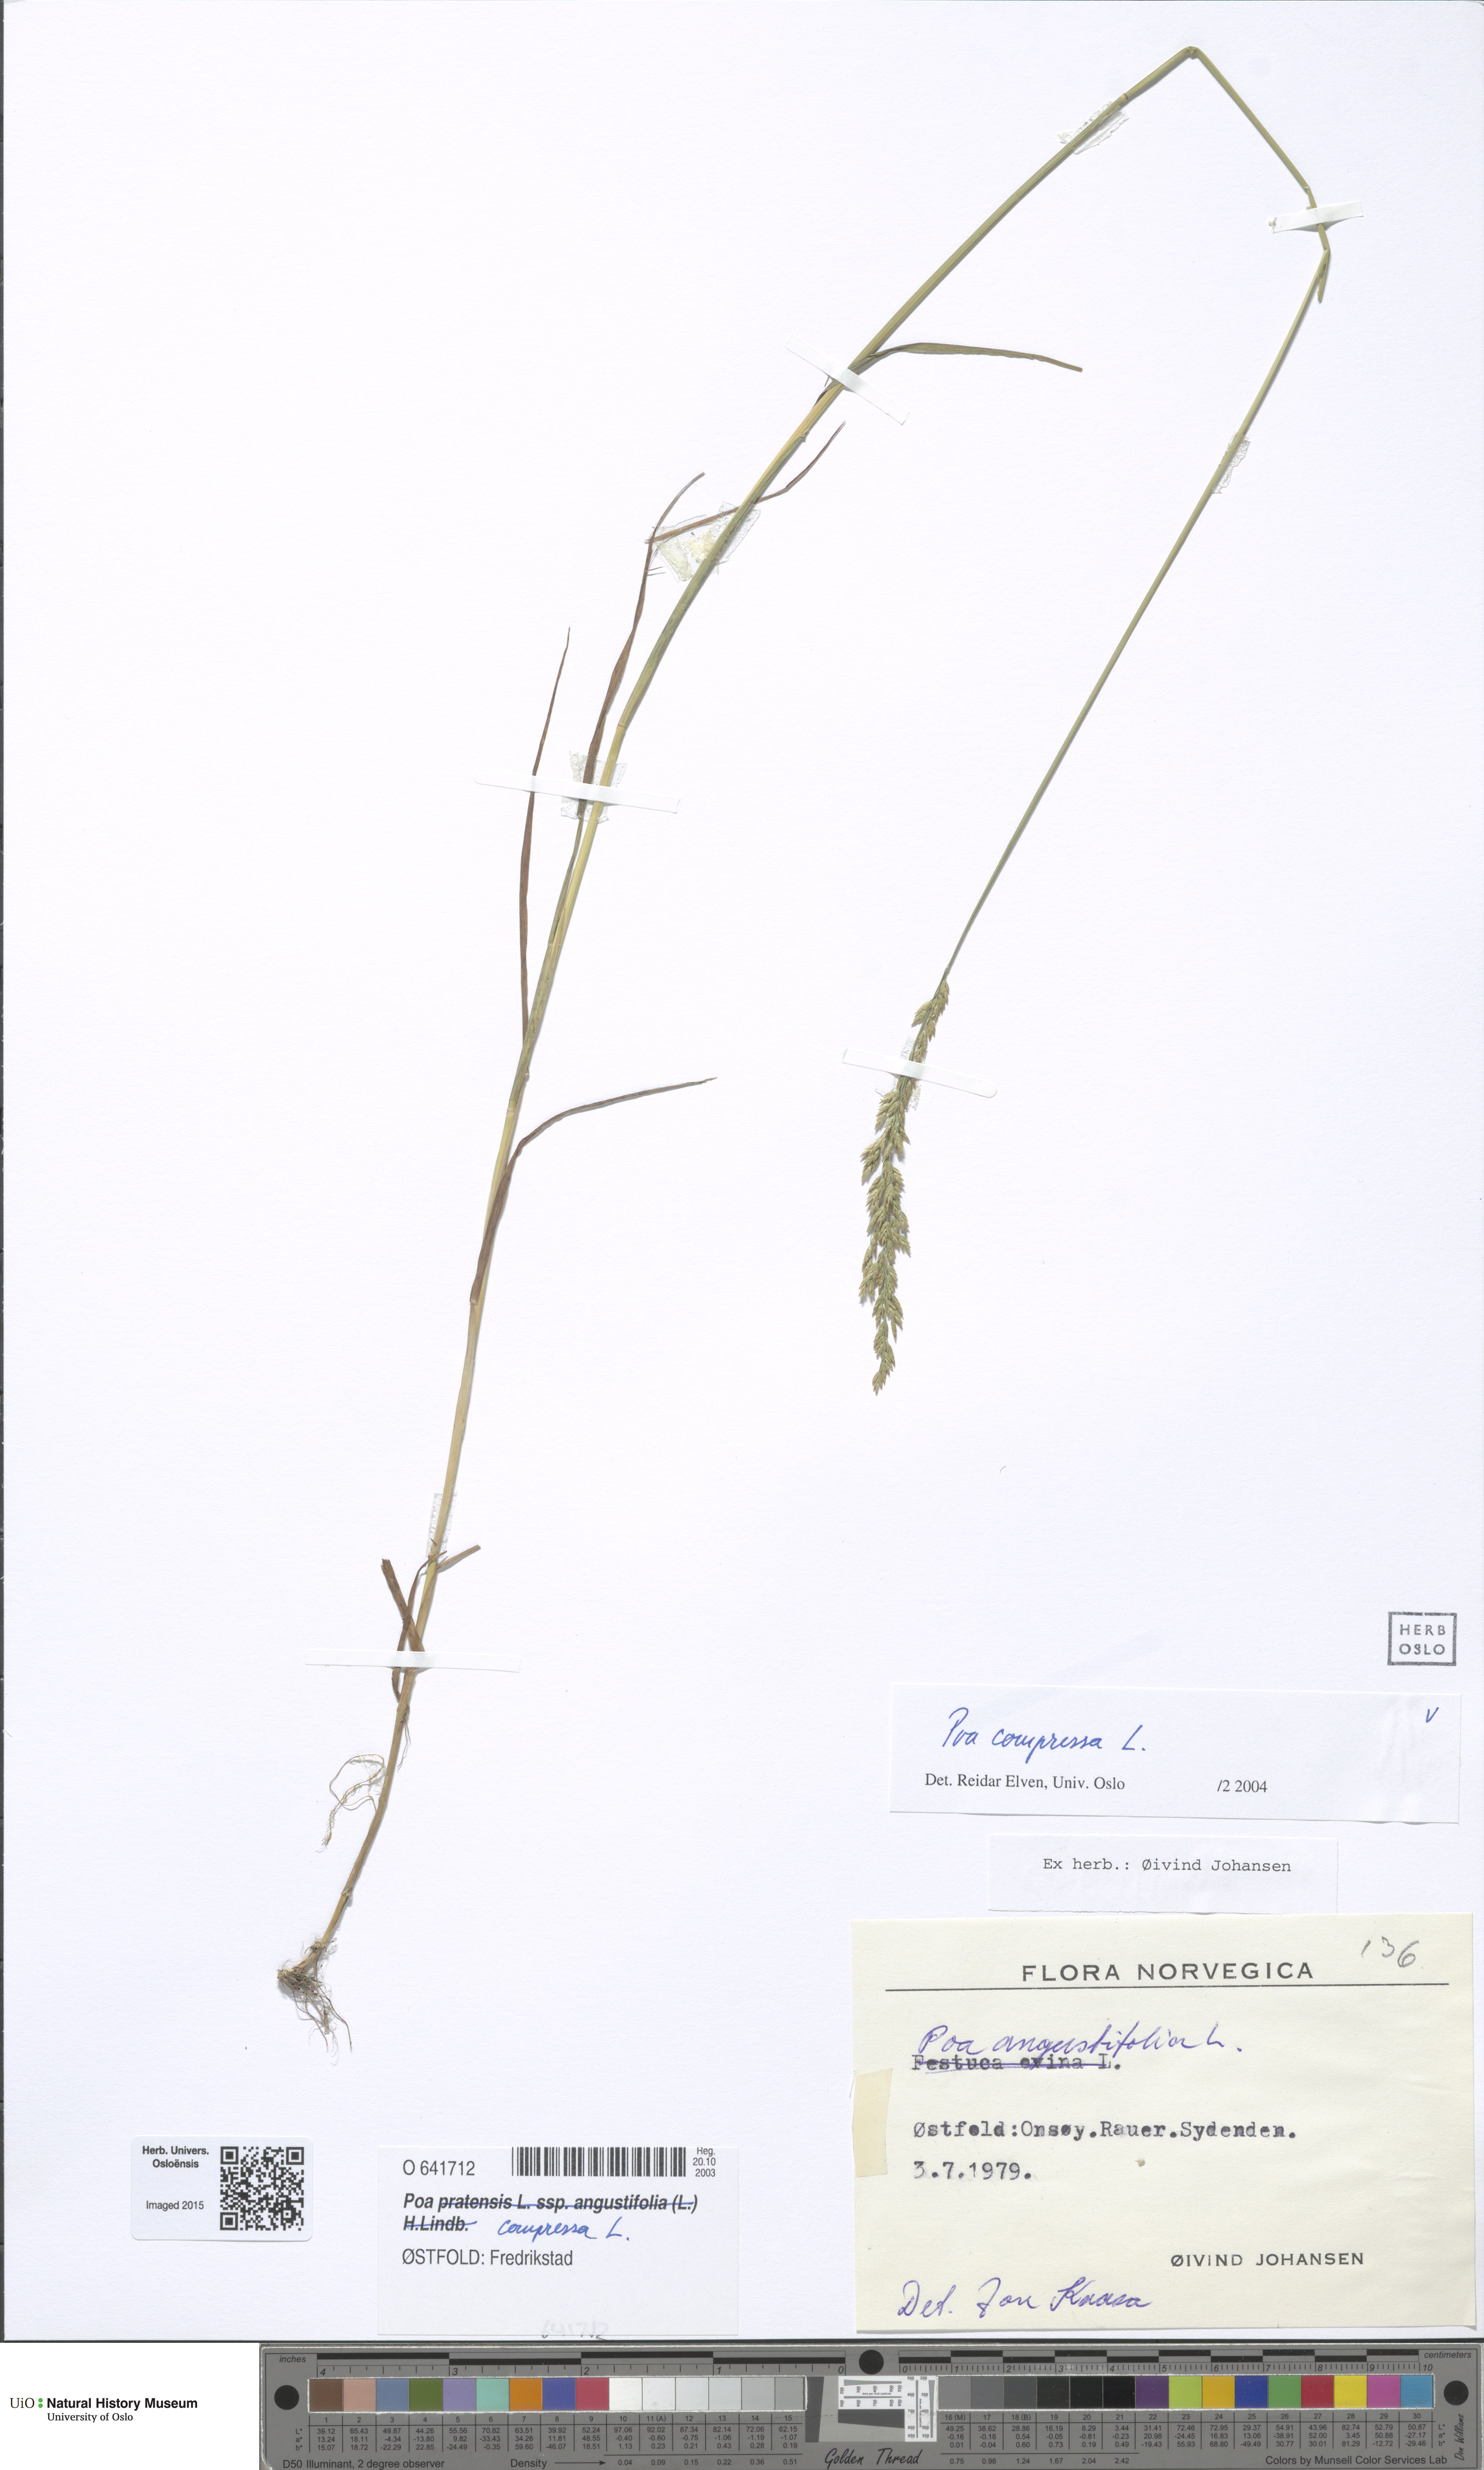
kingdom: Plantae
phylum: Tracheophyta
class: Liliopsida
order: Poales
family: Poaceae
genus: Poa
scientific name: Poa compressa
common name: Canada bluegrass
